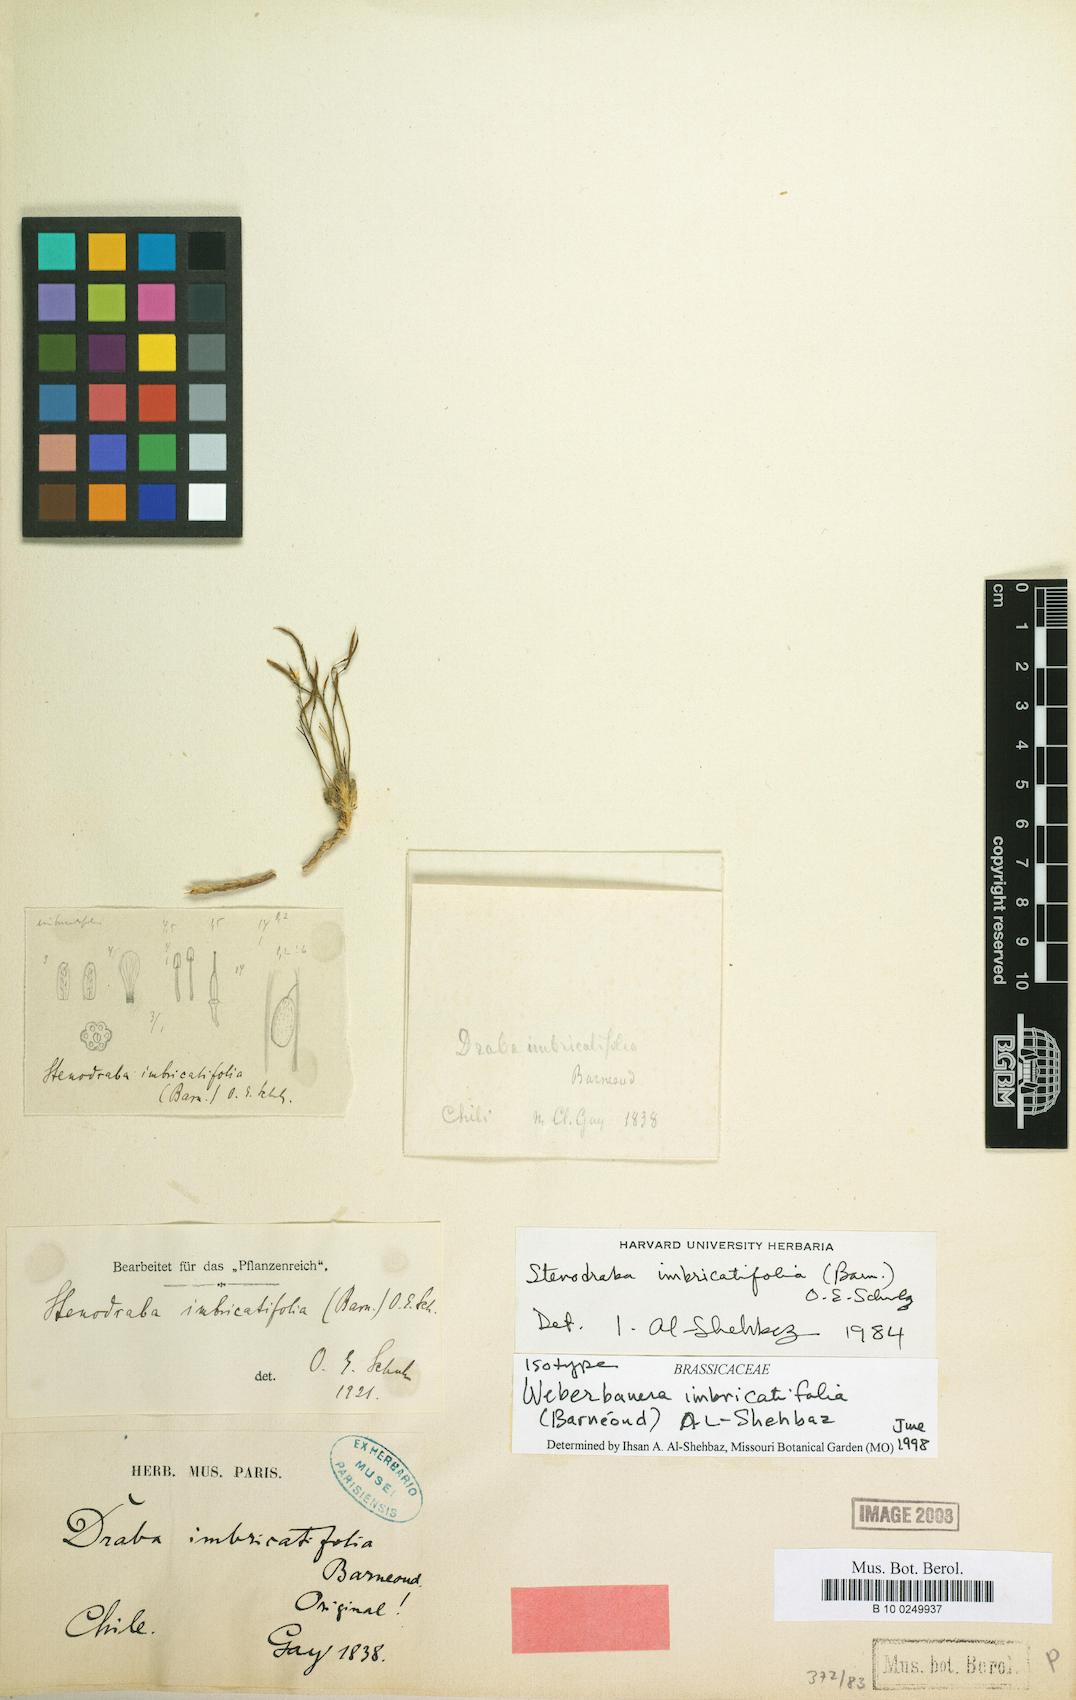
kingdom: Plantae
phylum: Tracheophyta
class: Magnoliopsida
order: Brassicales
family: Brassicaceae
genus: Stenodraba
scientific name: Stenodraba imbricatifolia
